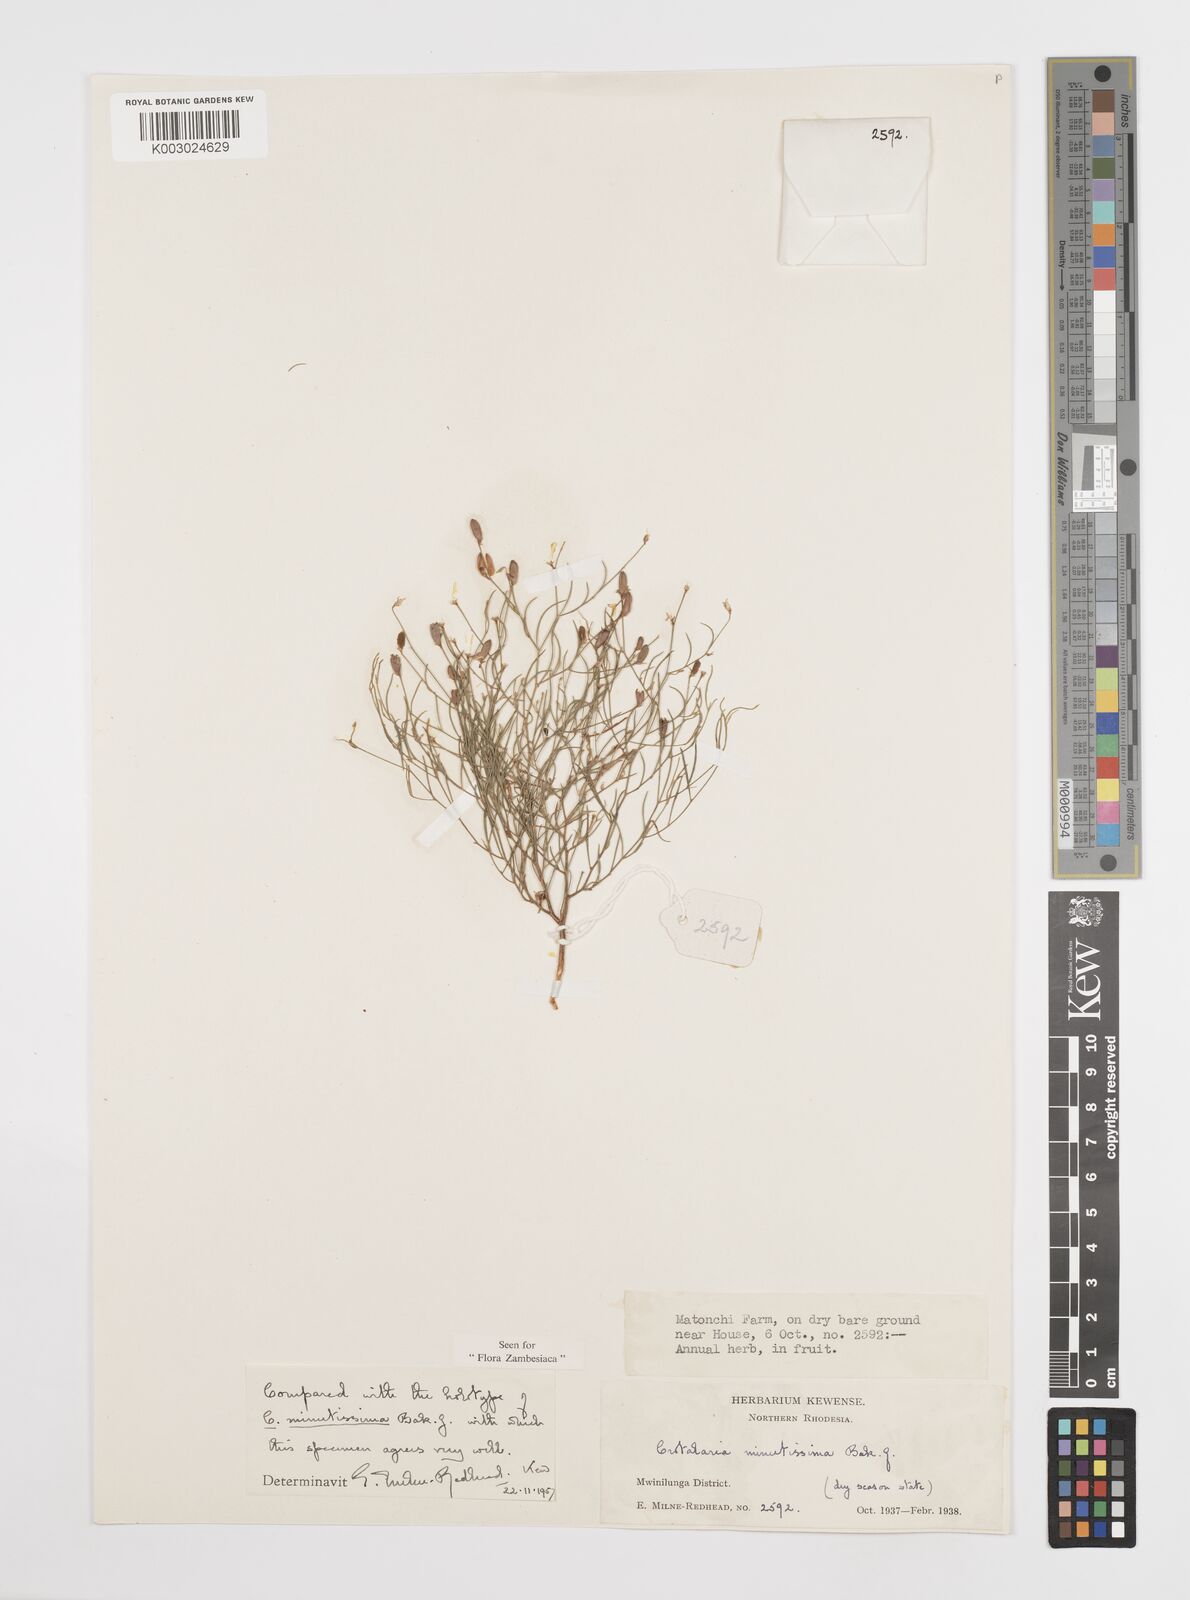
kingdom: Plantae
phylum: Tracheophyta
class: Magnoliopsida
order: Fabales
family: Fabaceae
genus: Crotalaria
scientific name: Crotalaria minutissima
